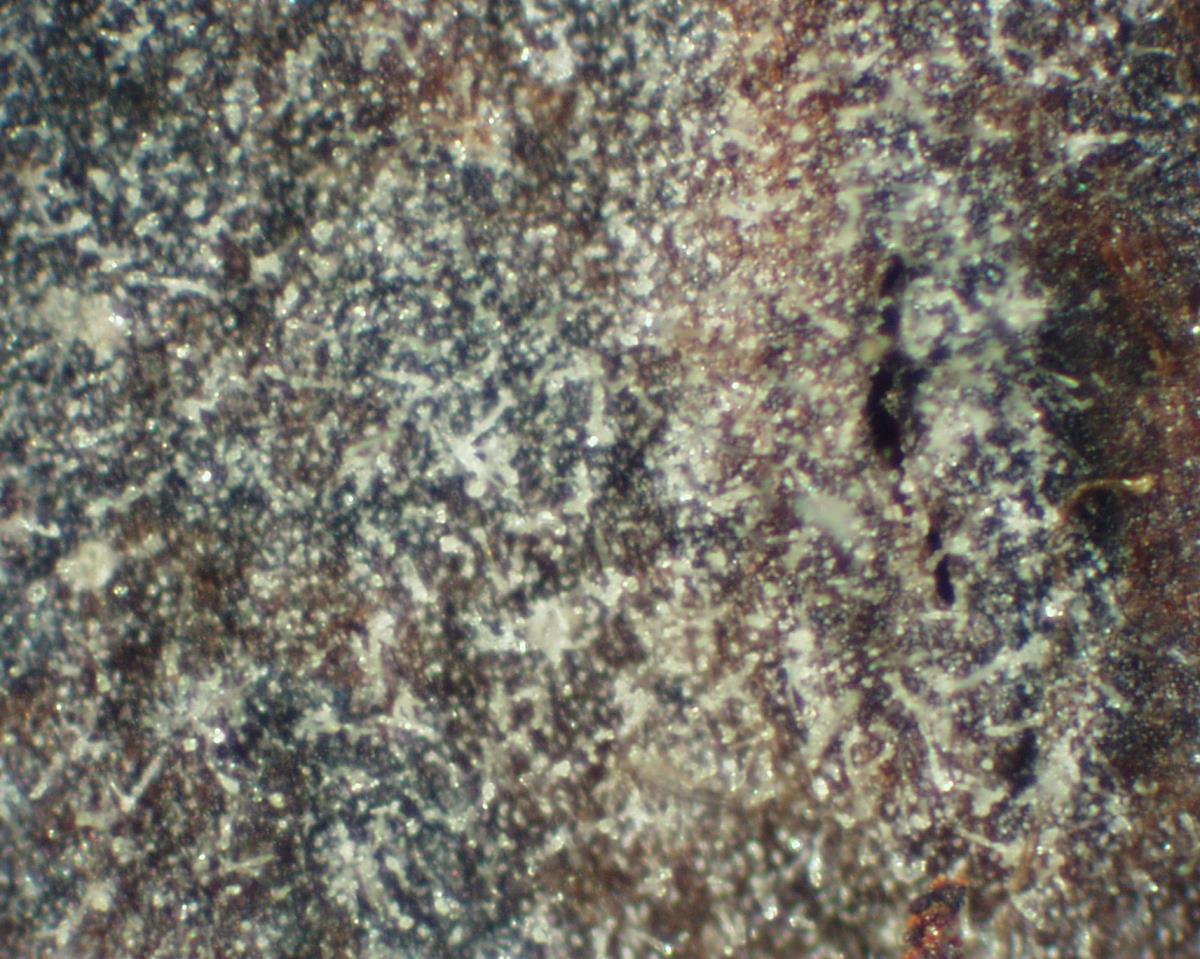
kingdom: Fungi
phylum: Basidiomycota
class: Agaricomycetes
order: Russulales
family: Xenasmataceae
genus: Xenasma
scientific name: Xenasma rimicola
